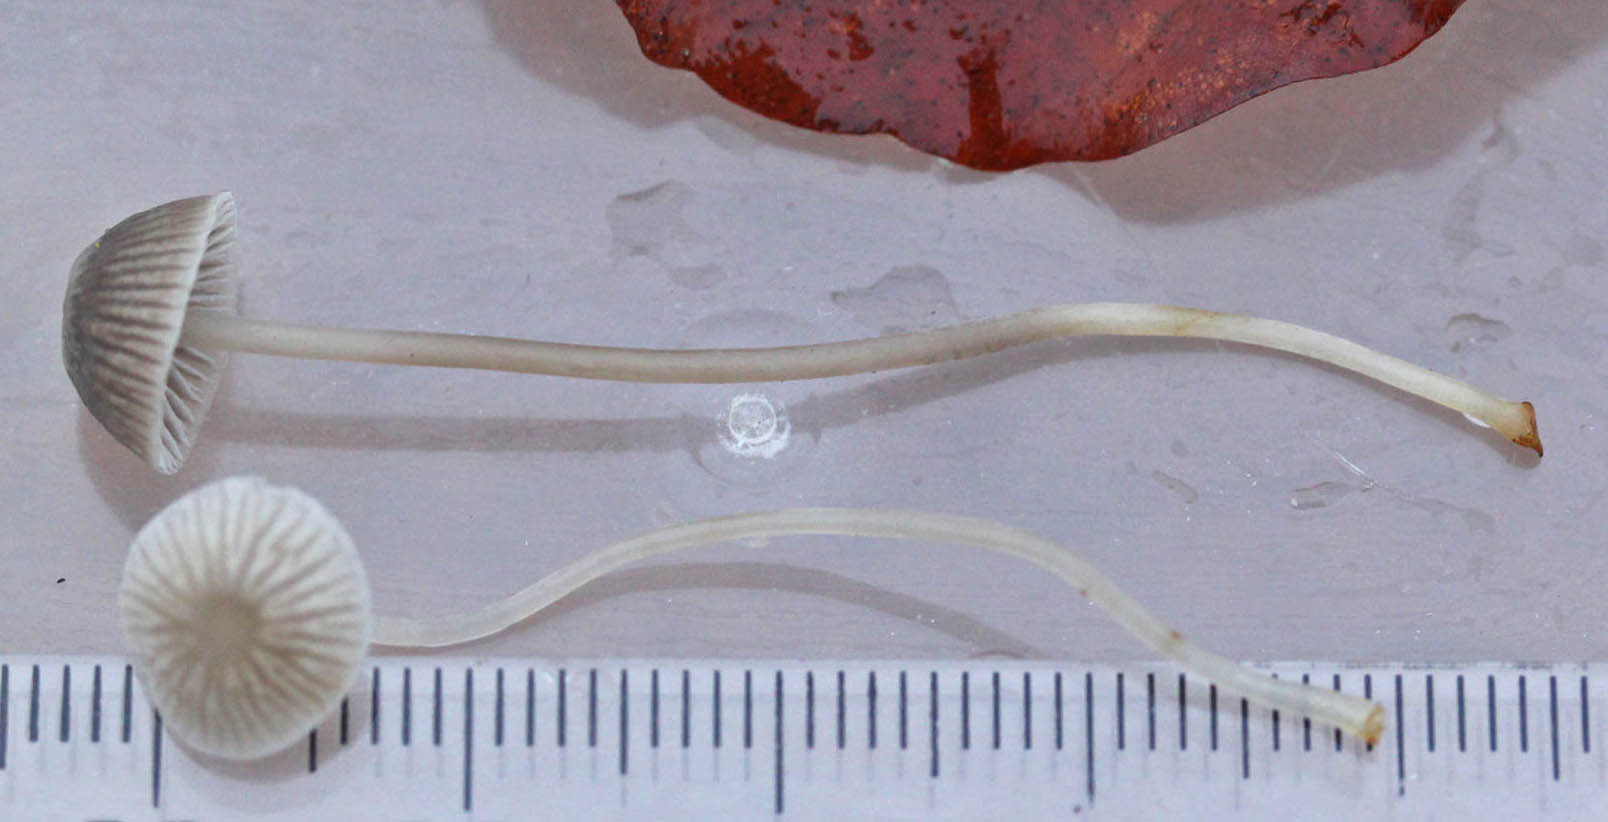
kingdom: Fungi
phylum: Basidiomycota
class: Agaricomycetes
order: Agaricales
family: Mycenaceae
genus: Mycena
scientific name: Mycena cinerella
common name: mel-huesvamp
